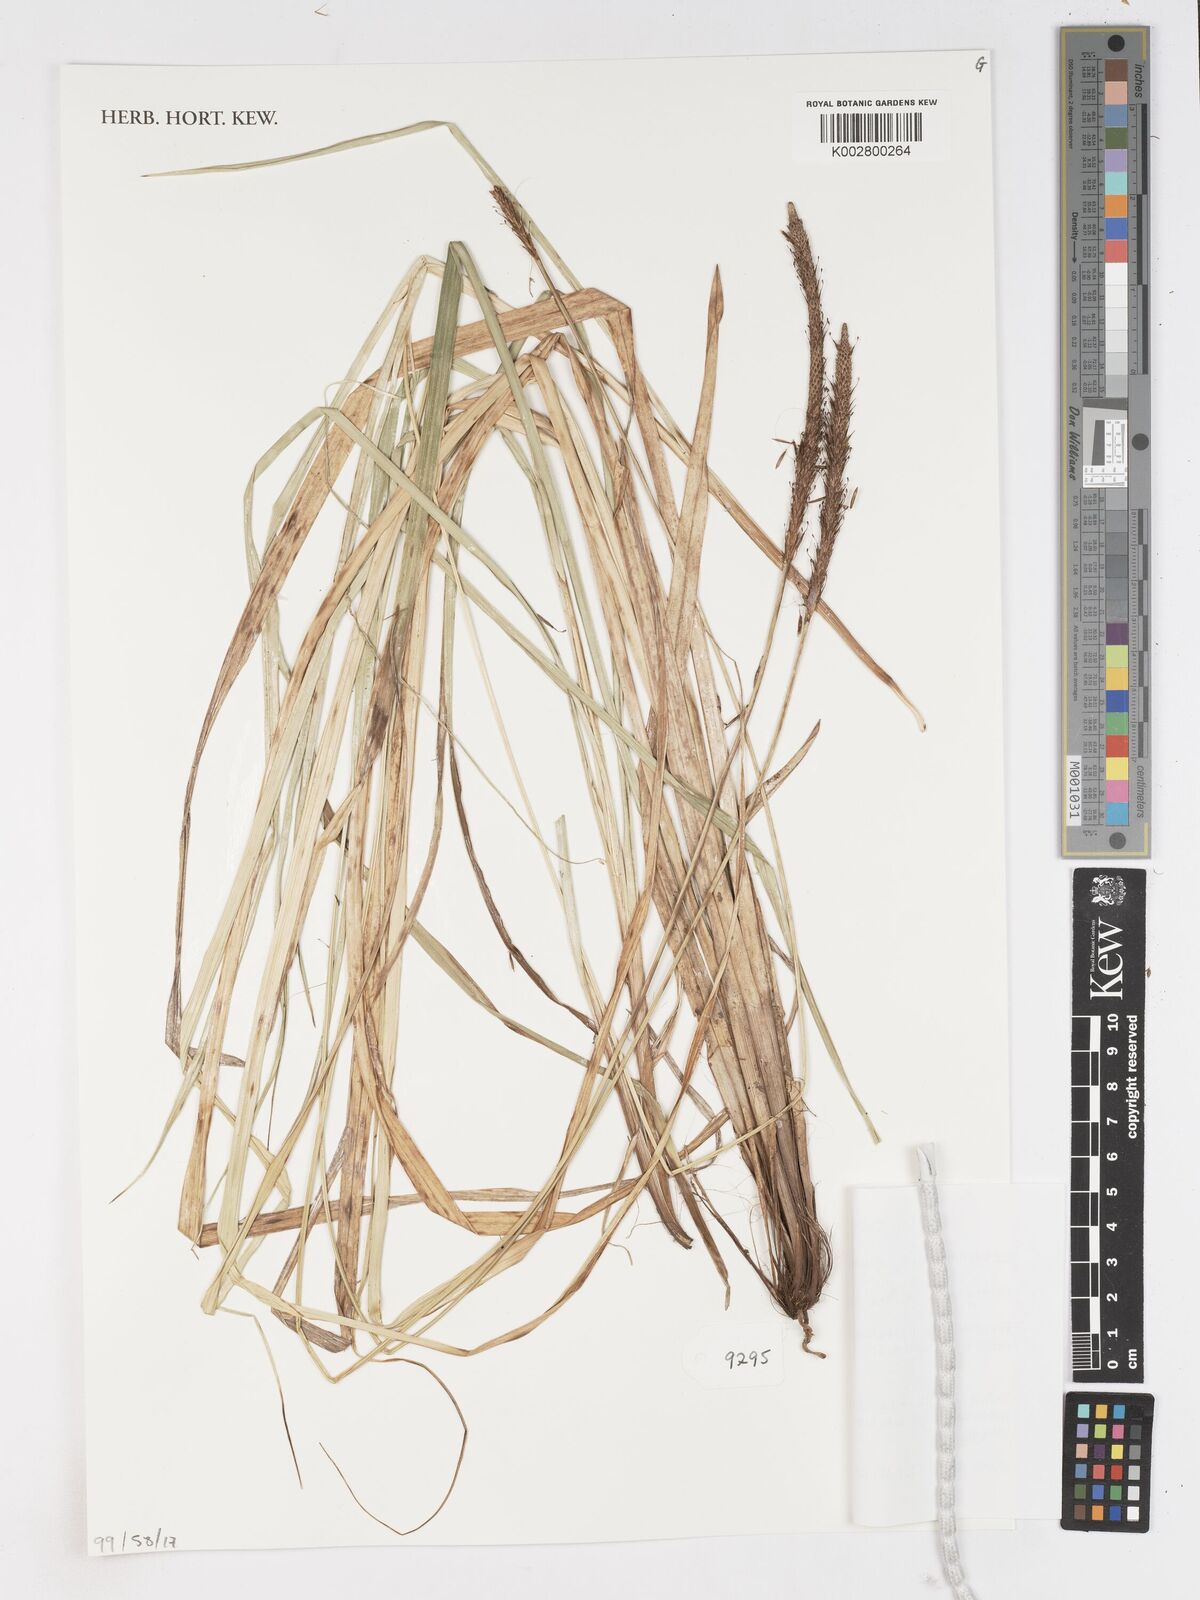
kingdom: Plantae
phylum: Tracheophyta
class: Liliopsida
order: Poales
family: Cyperaceae
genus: Carex
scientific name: Carex
